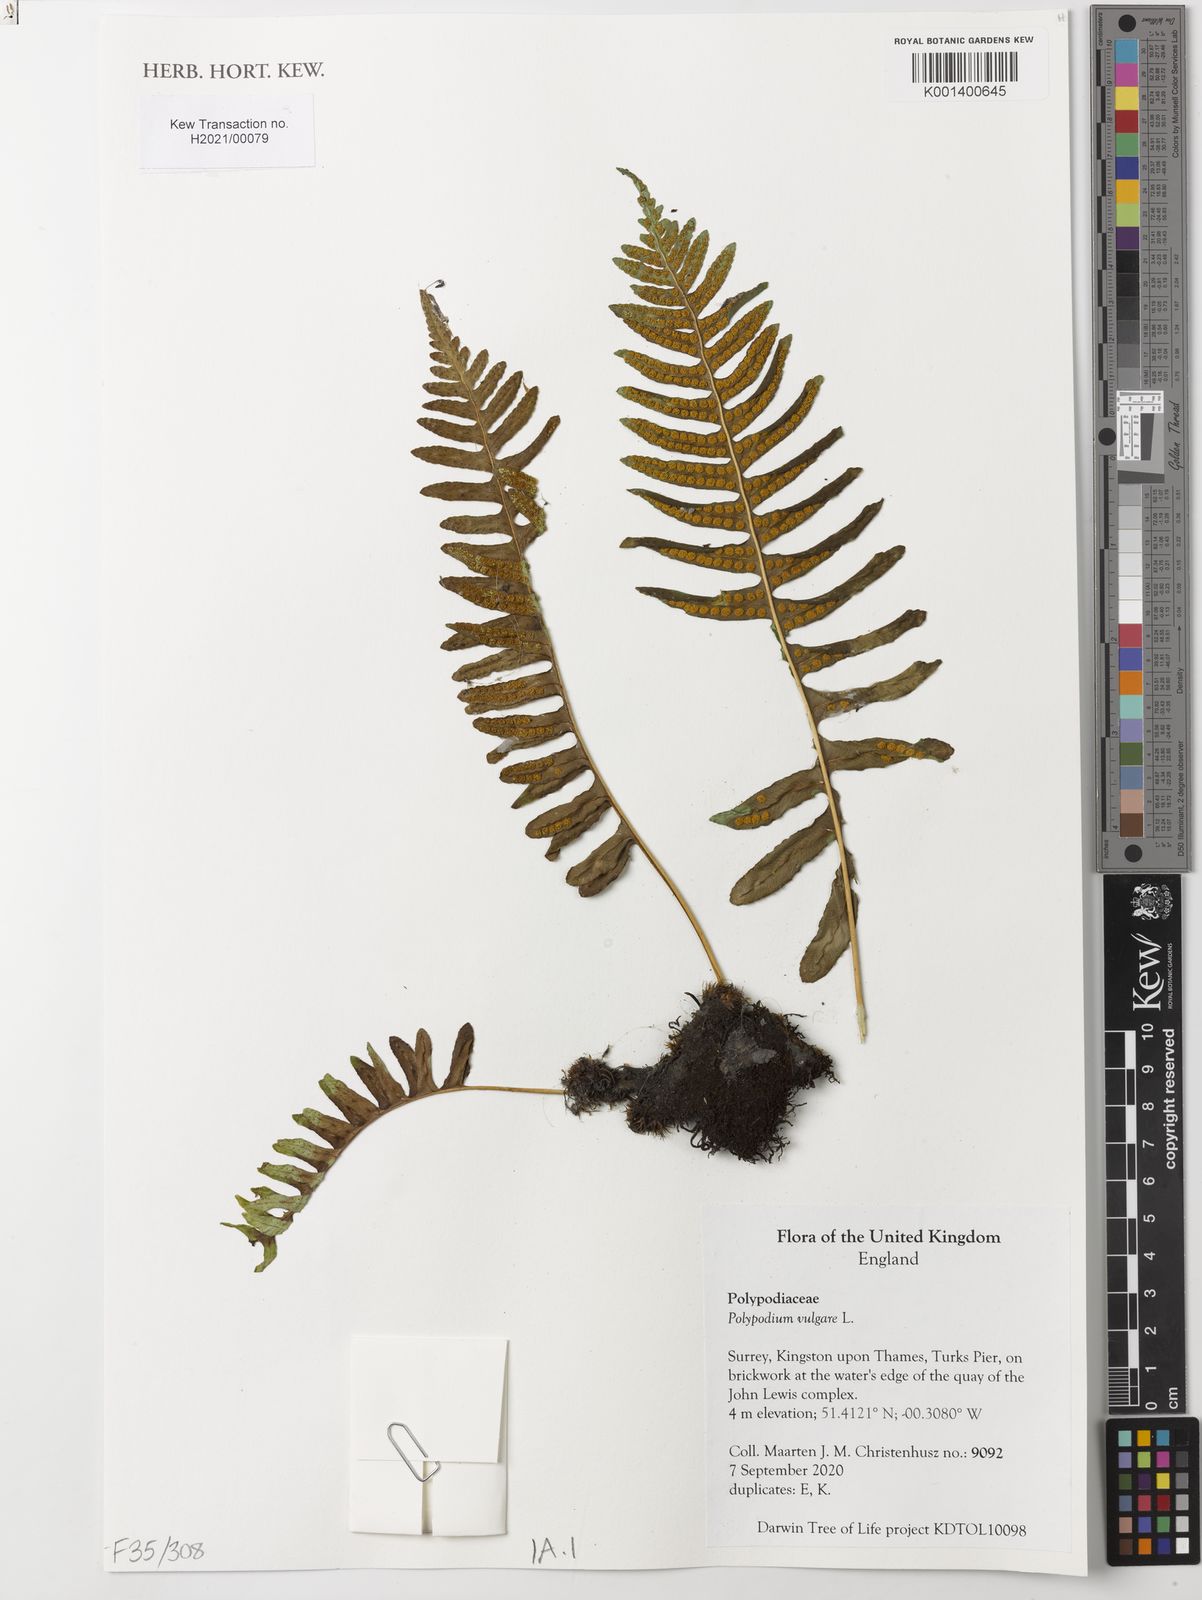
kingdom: Plantae
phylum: Tracheophyta
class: Polypodiopsida
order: Polypodiales
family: Polypodiaceae
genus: Polypodium
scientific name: Polypodium vulgare
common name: Common polypody
